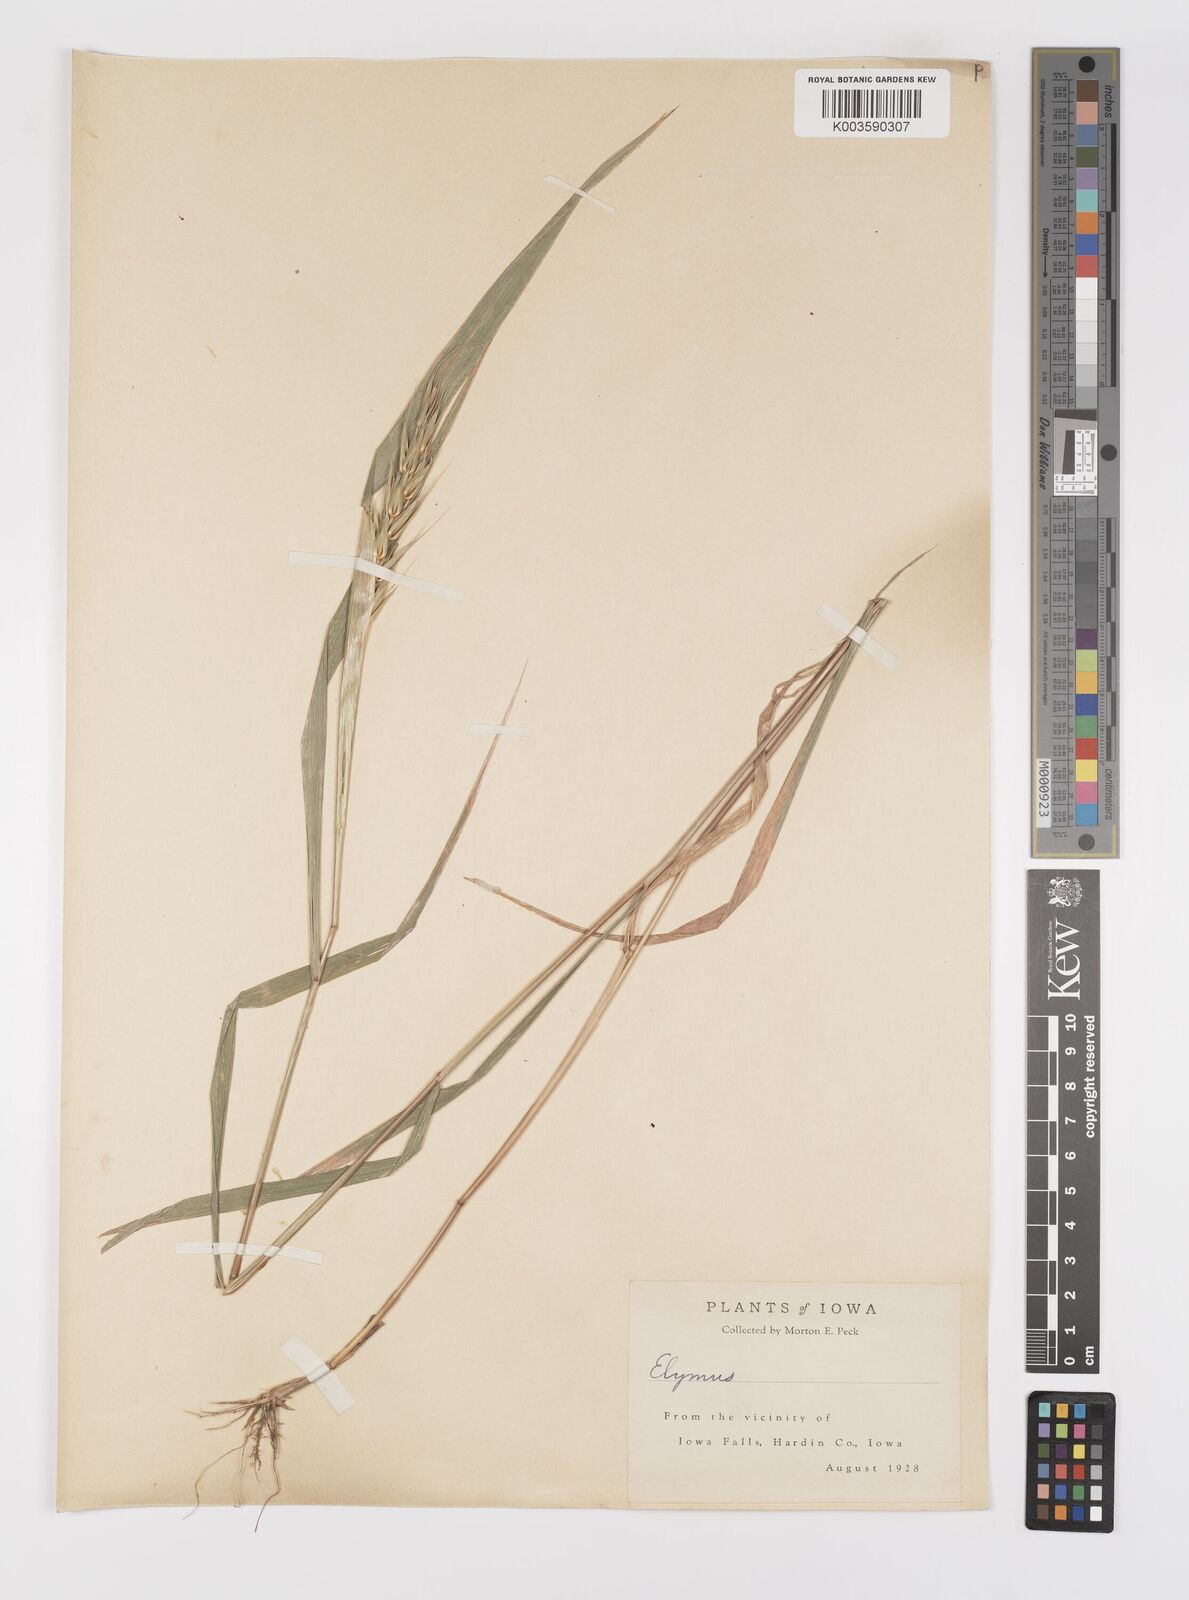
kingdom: Plantae
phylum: Tracheophyta
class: Liliopsida
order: Poales
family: Poaceae
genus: Elymus
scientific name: Elymus
